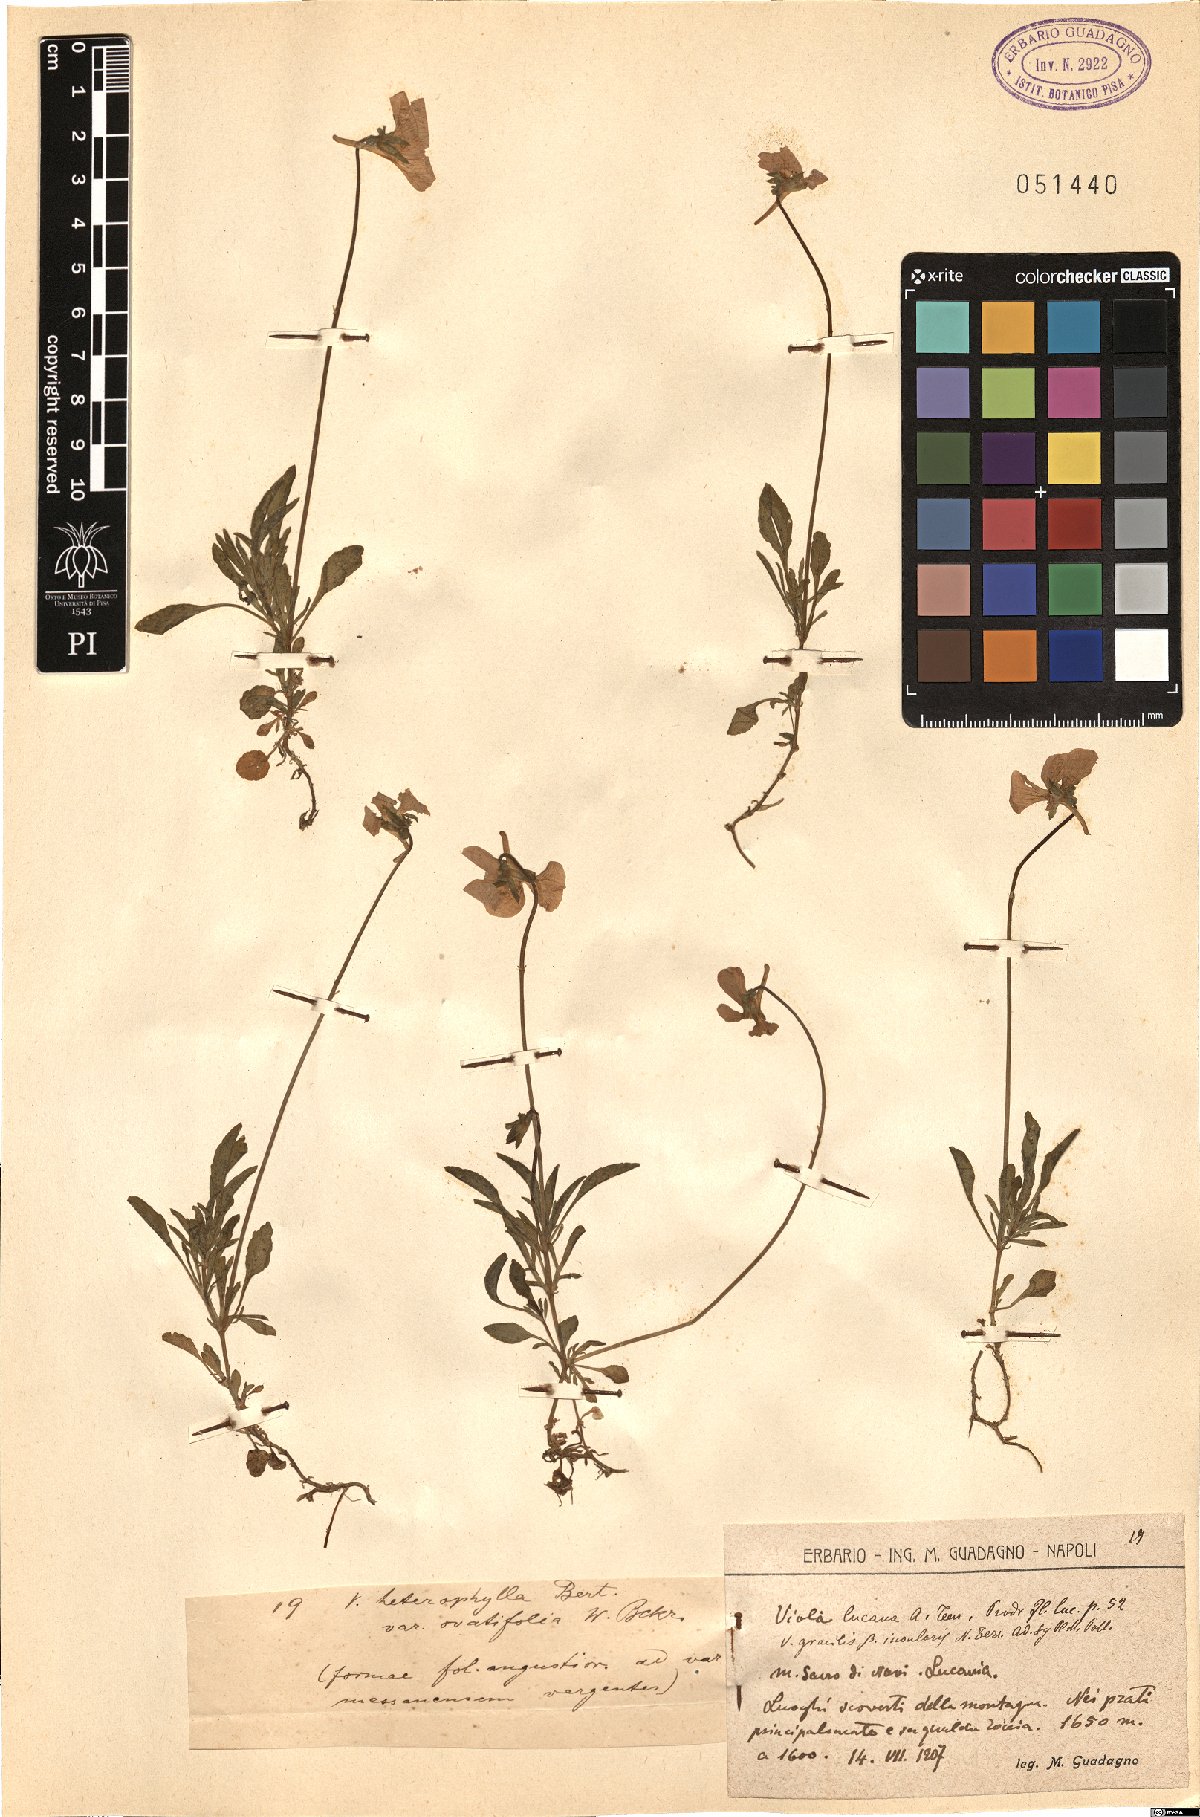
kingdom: Plantae
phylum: Tracheophyta
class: Magnoliopsida
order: Malpighiales
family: Violaceae
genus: Viola
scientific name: Viola heterophylla
